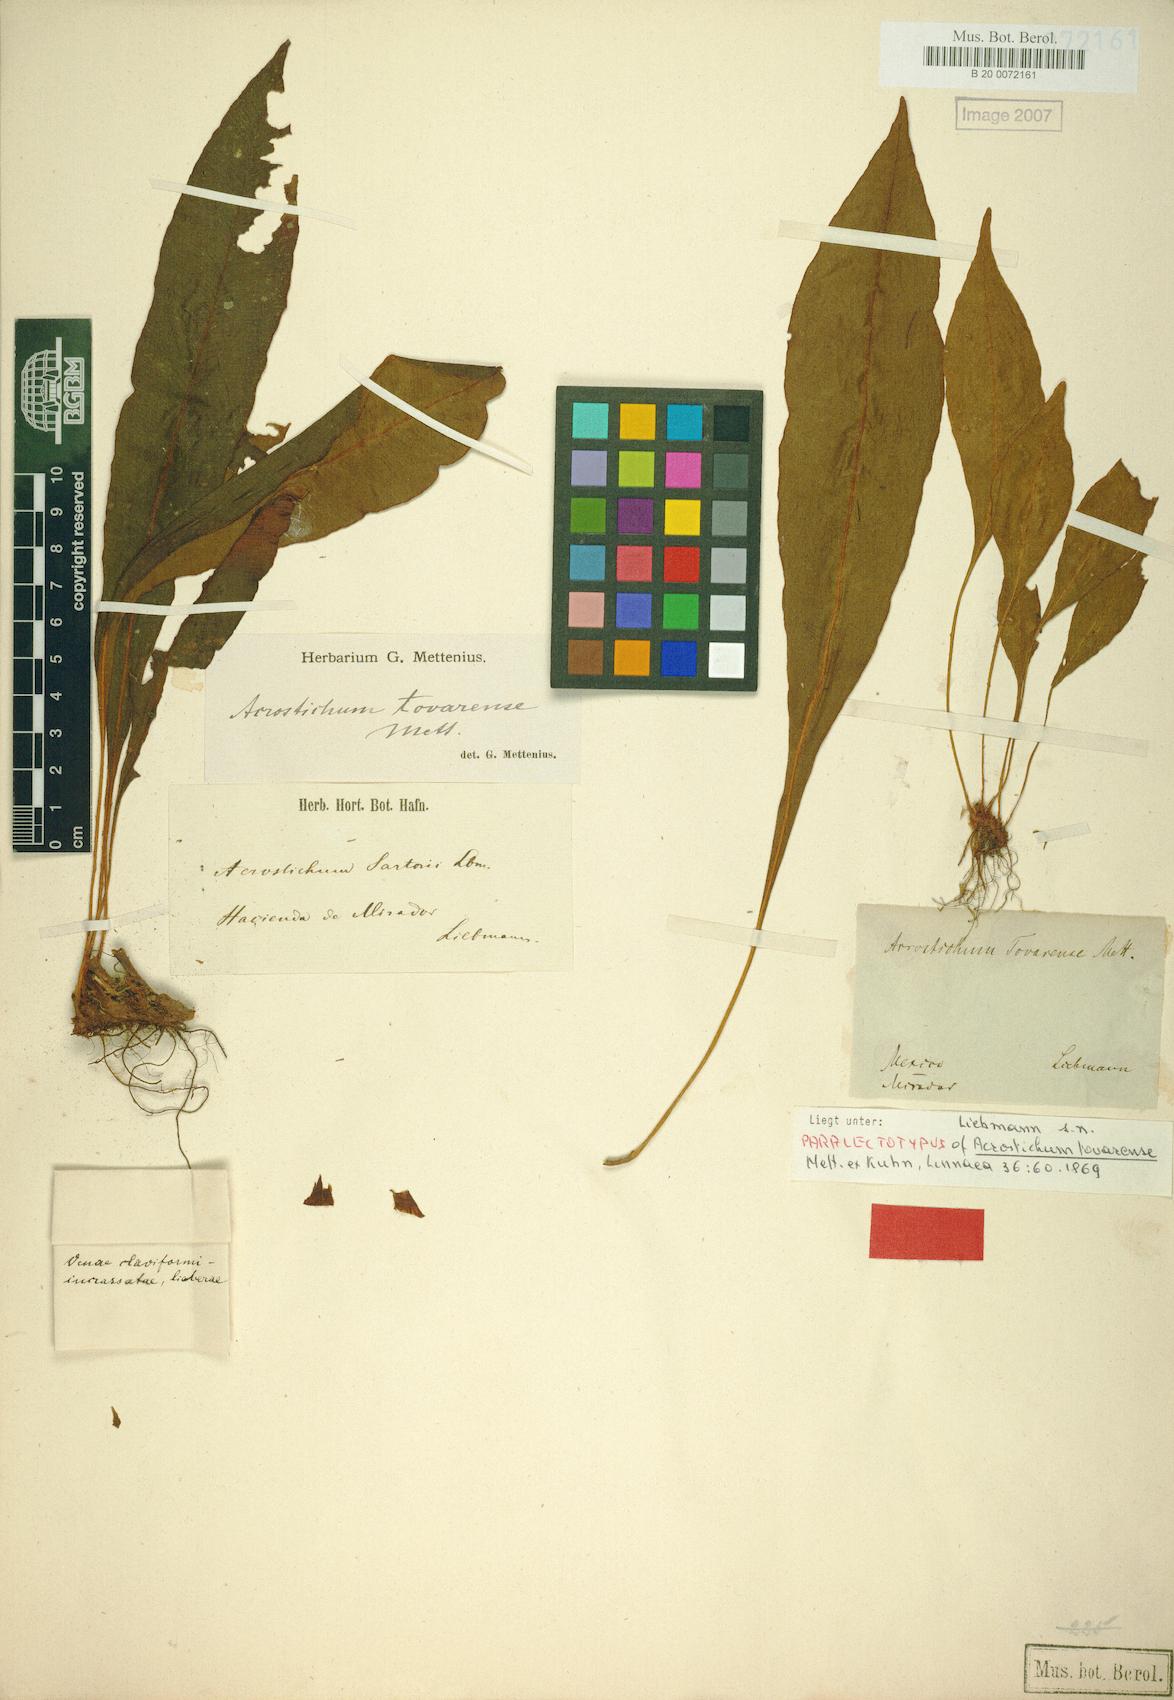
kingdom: Plantae
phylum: Tracheophyta
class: Polypodiopsida
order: Polypodiales
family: Pteridaceae
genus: Acrostichum
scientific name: Acrostichum Elaphoglossum tovarense
